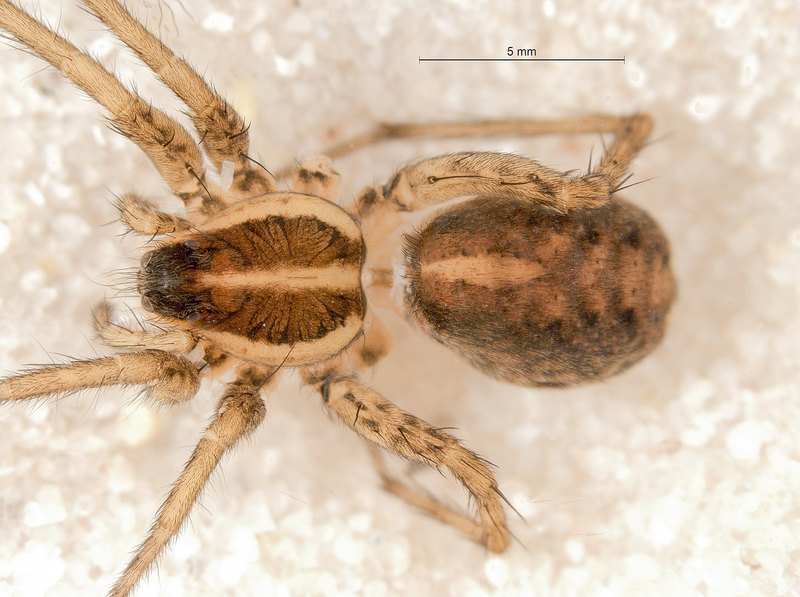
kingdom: Animalia
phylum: Arthropoda
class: Arachnida
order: Araneae
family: Lycosidae
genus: Pardosa
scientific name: Pardosa palustris
